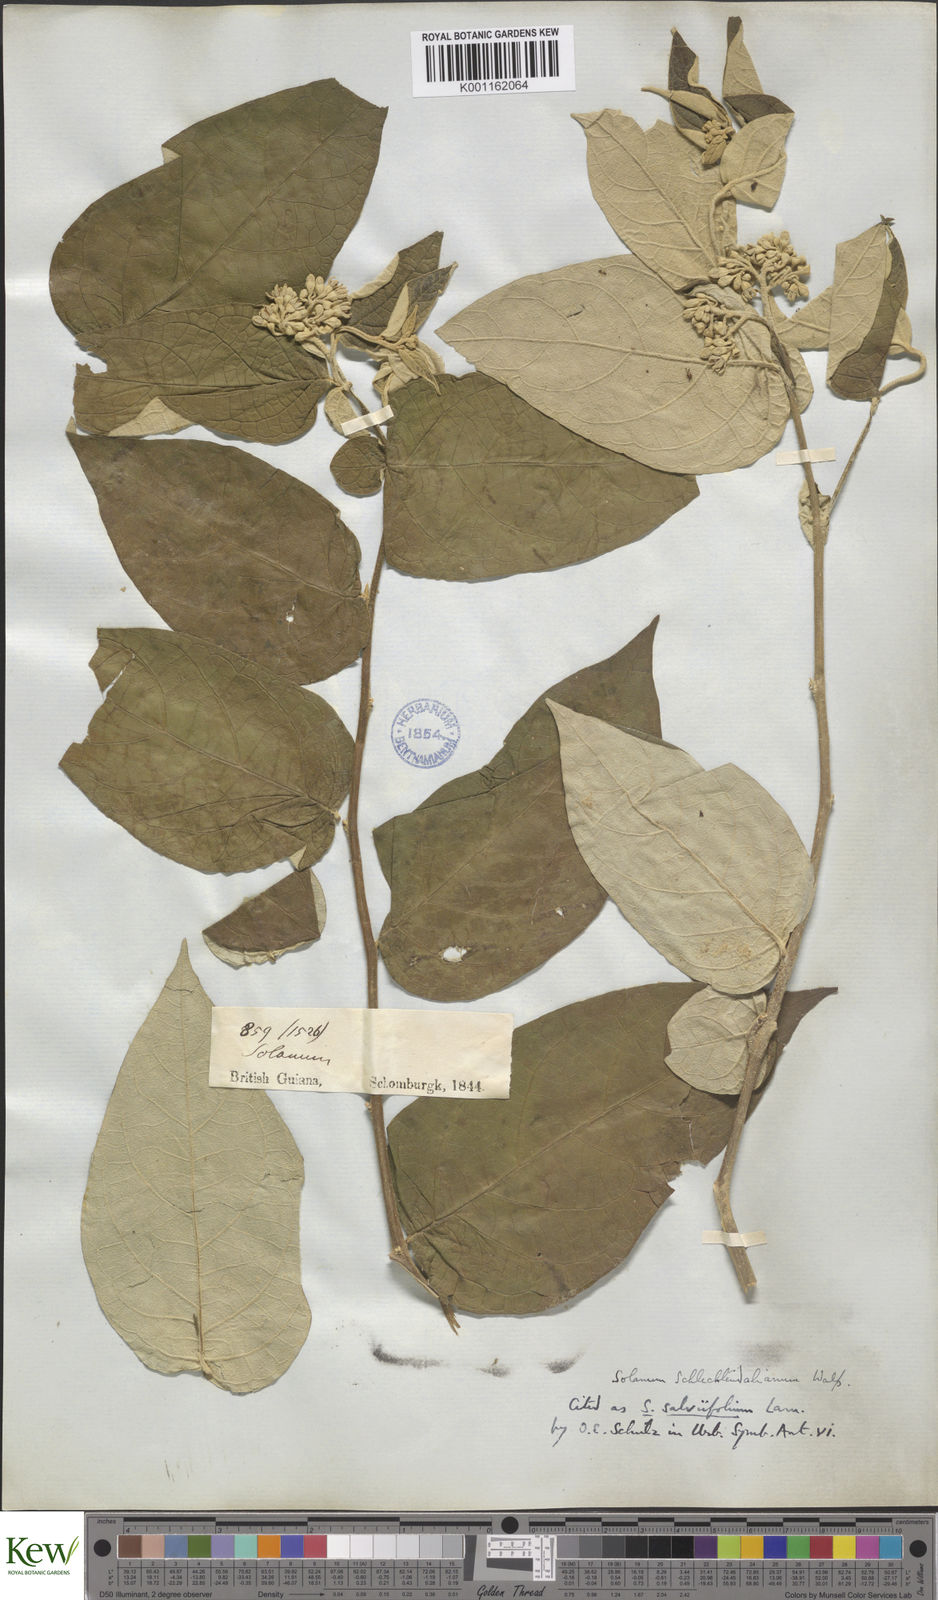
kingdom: Plantae
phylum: Tracheophyta
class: Magnoliopsida
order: Solanales
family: Solanaceae
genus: Solanum
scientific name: Solanum schlechtendalianum
